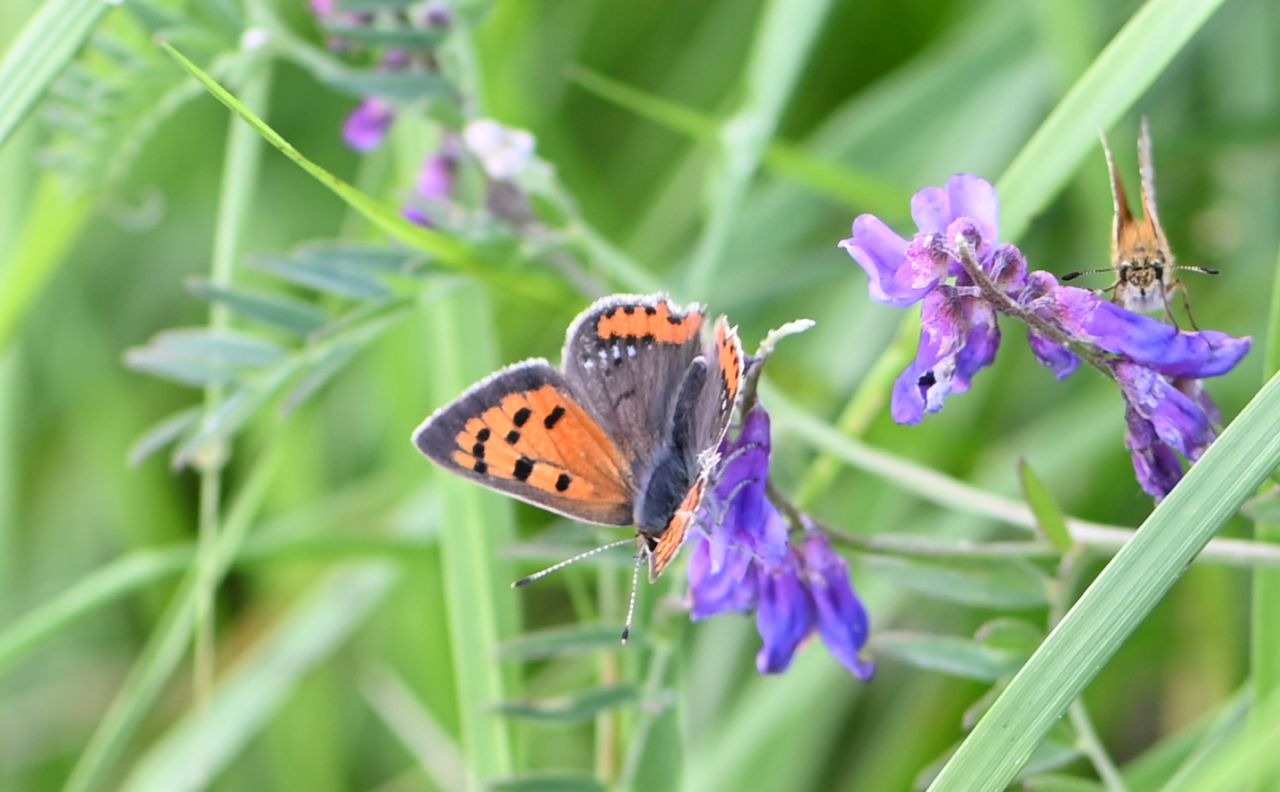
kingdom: Animalia
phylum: Arthropoda
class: Insecta
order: Lepidoptera
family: Lycaenidae
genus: Lycaena
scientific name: Lycaena phlaeas
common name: Lille ildfugl
